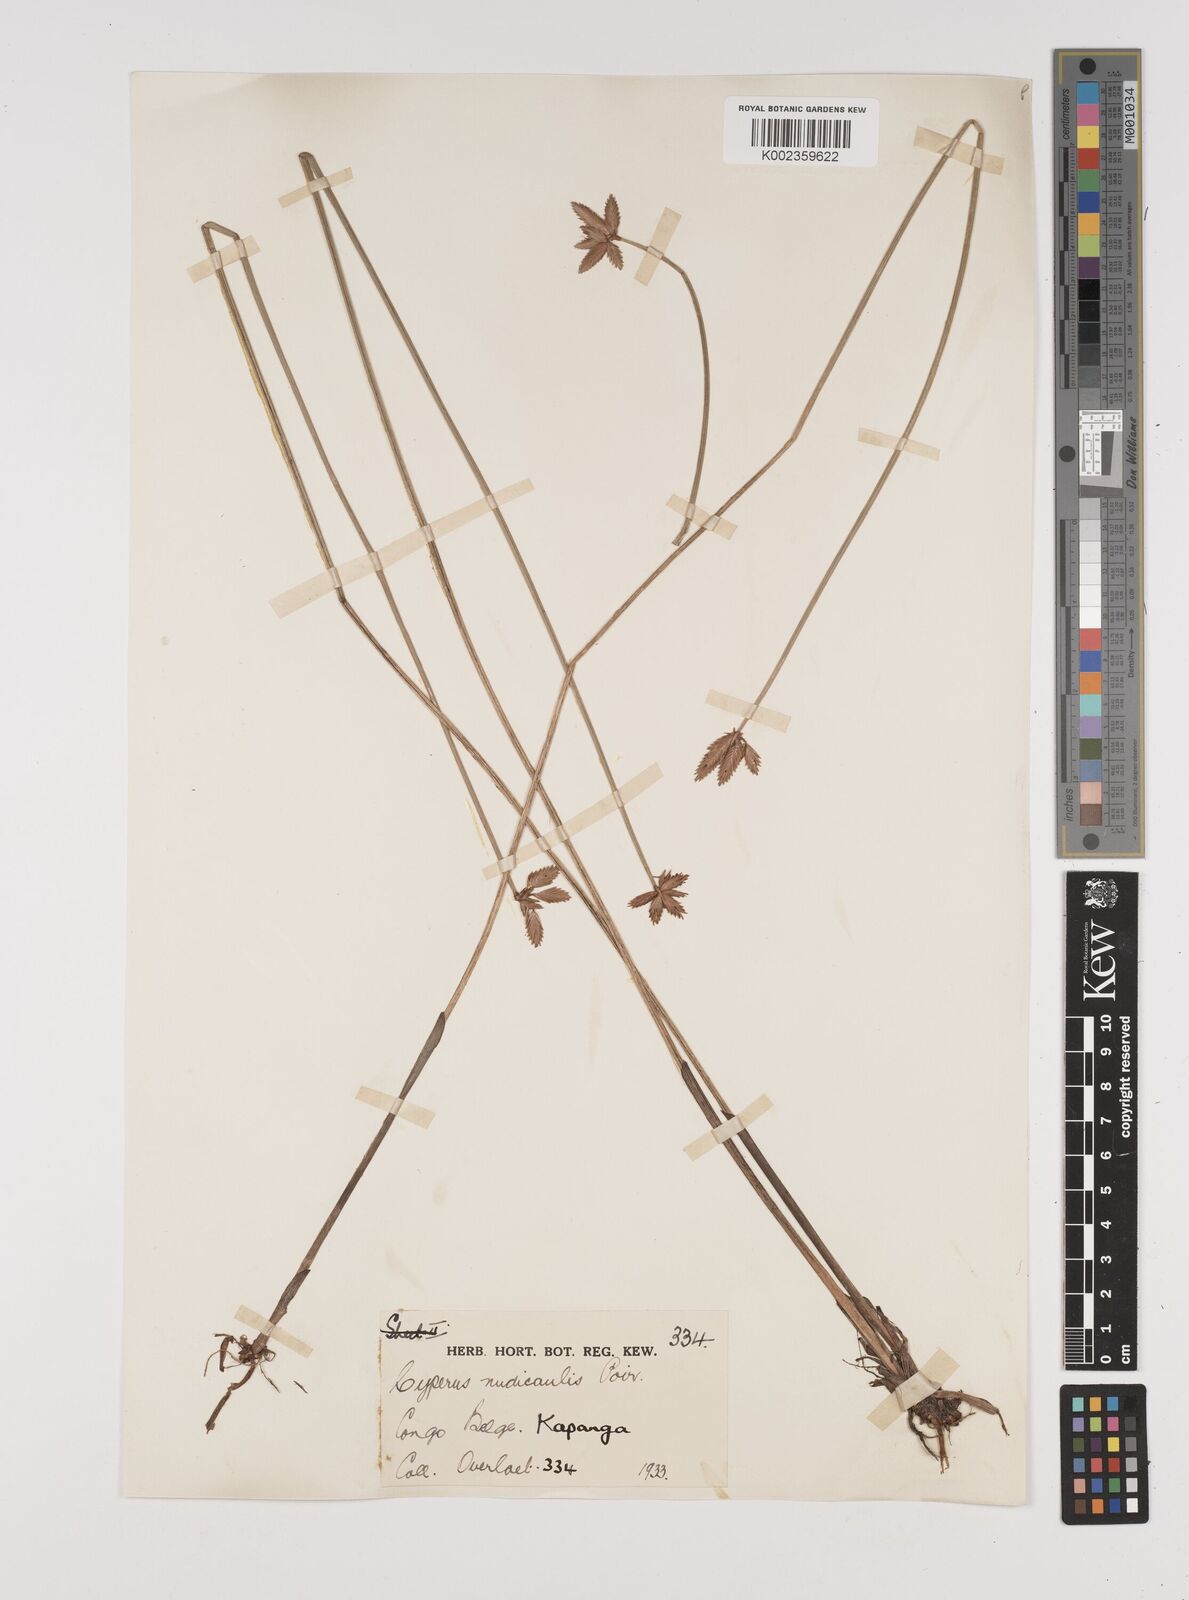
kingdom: Plantae
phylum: Tracheophyta
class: Liliopsida
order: Poales
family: Cyperaceae
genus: Cyperus
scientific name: Cyperus pectinatus
